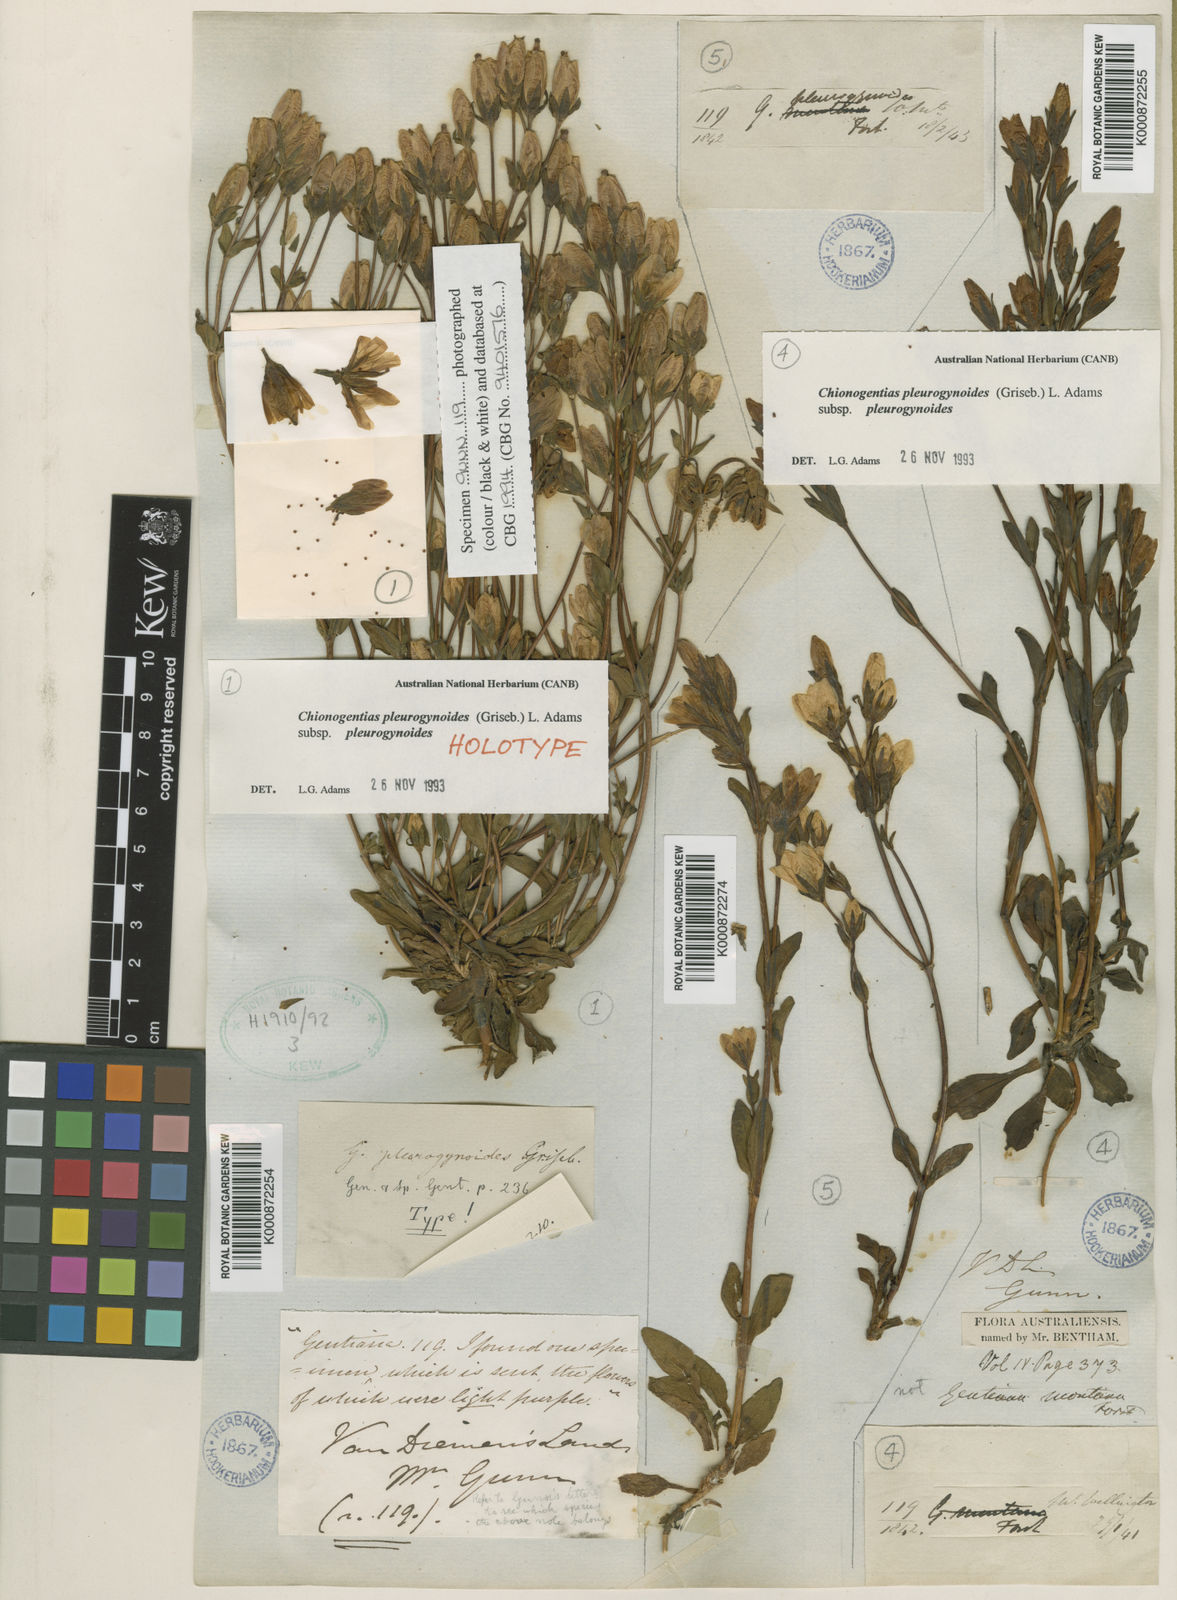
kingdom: Plantae
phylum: Tracheophyta
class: Magnoliopsida
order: Gentianales
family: Gentianaceae
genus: Gentianella
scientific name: Gentianella pleurogynoides
